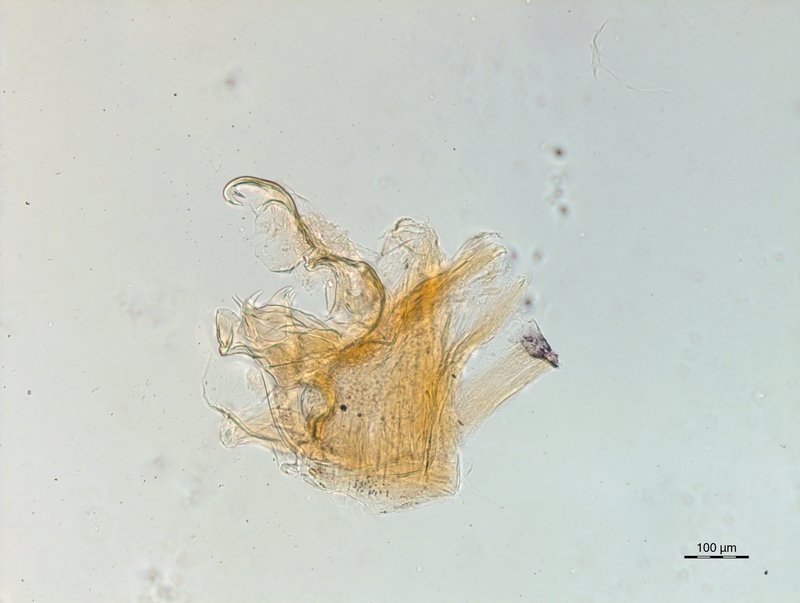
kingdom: Animalia
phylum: Arthropoda
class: Diplopoda
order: Chordeumatida
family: Craspedosomatidae
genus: Ochogona
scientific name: Ochogona caroli
